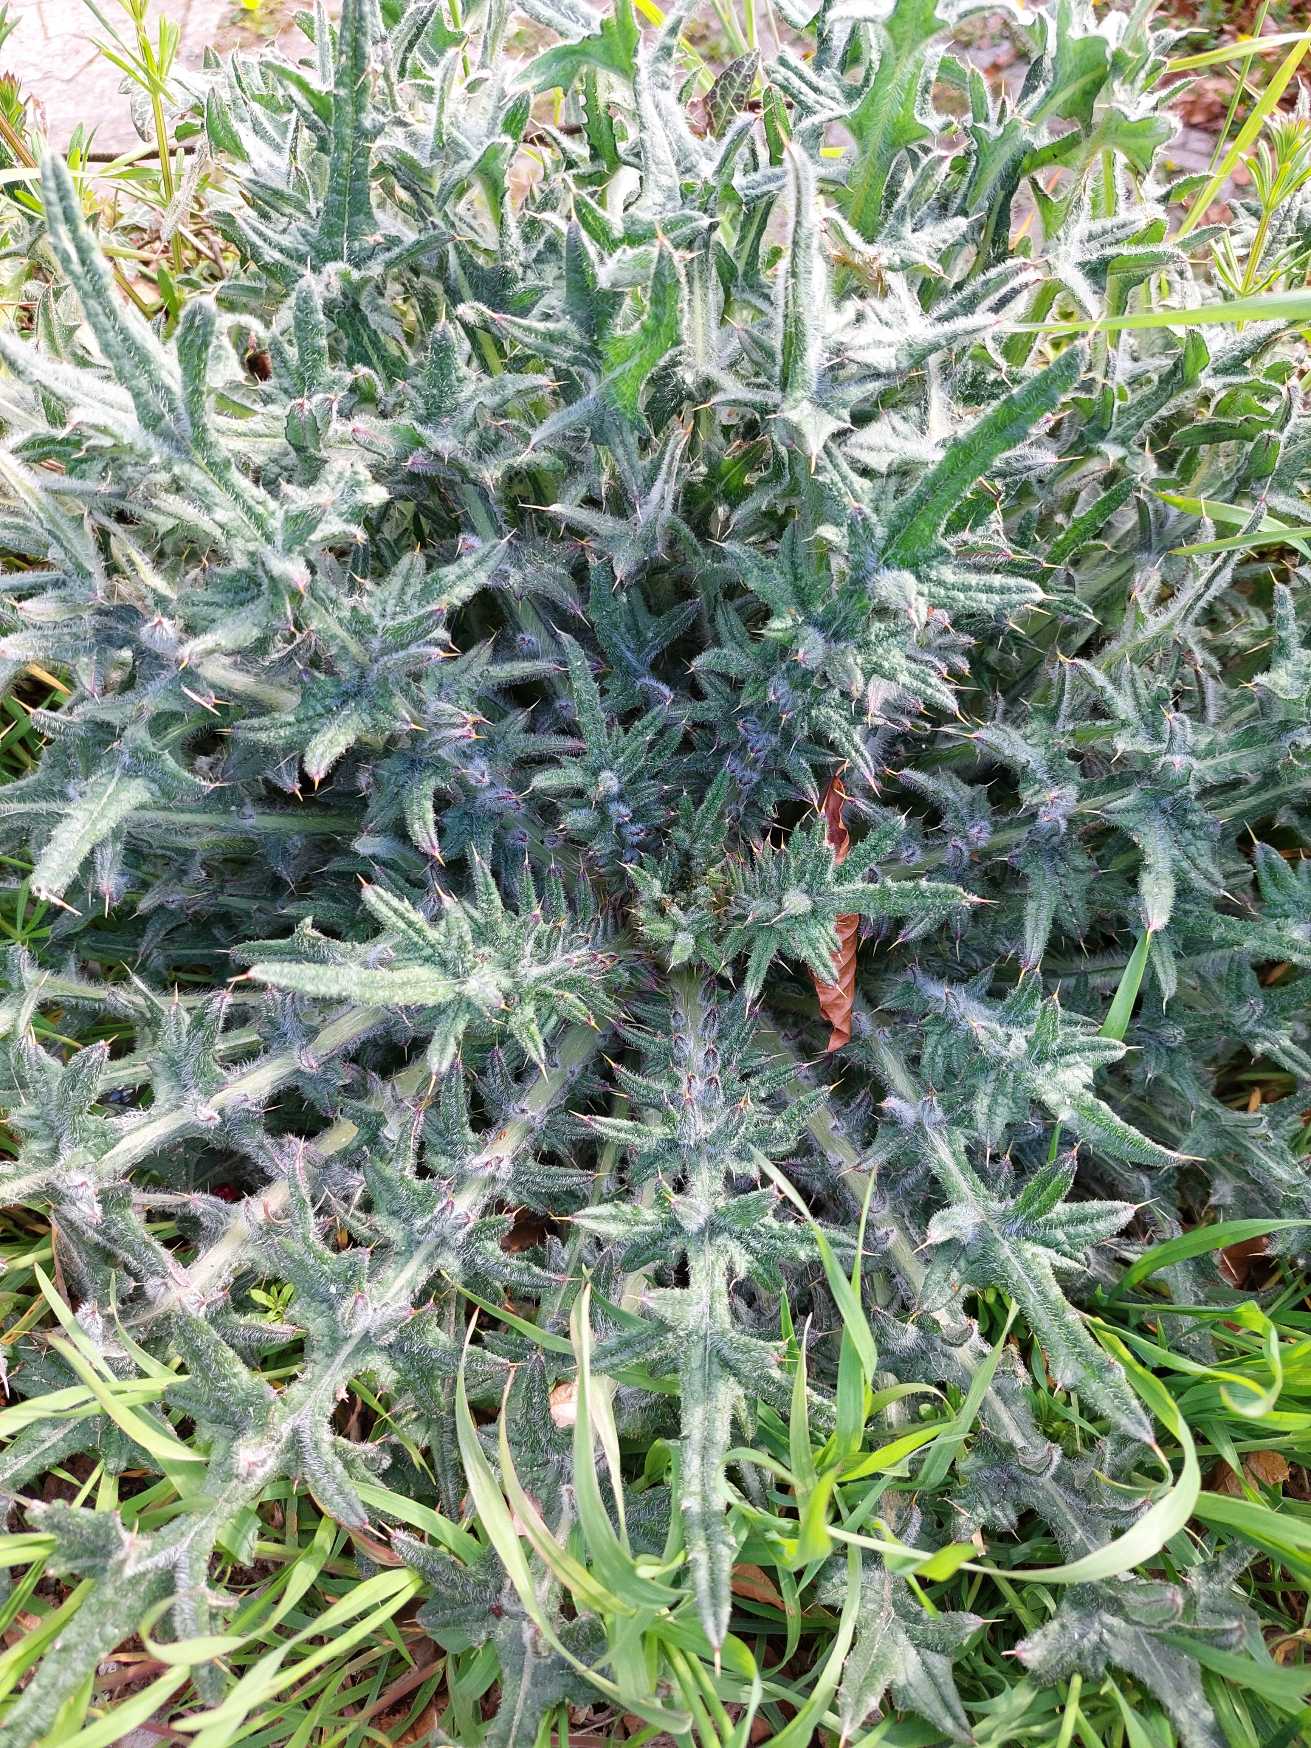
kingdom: Plantae
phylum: Tracheophyta
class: Magnoliopsida
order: Asterales
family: Asteraceae
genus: Cirsium
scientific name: Cirsium vulgare
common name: Horse-tidsel
